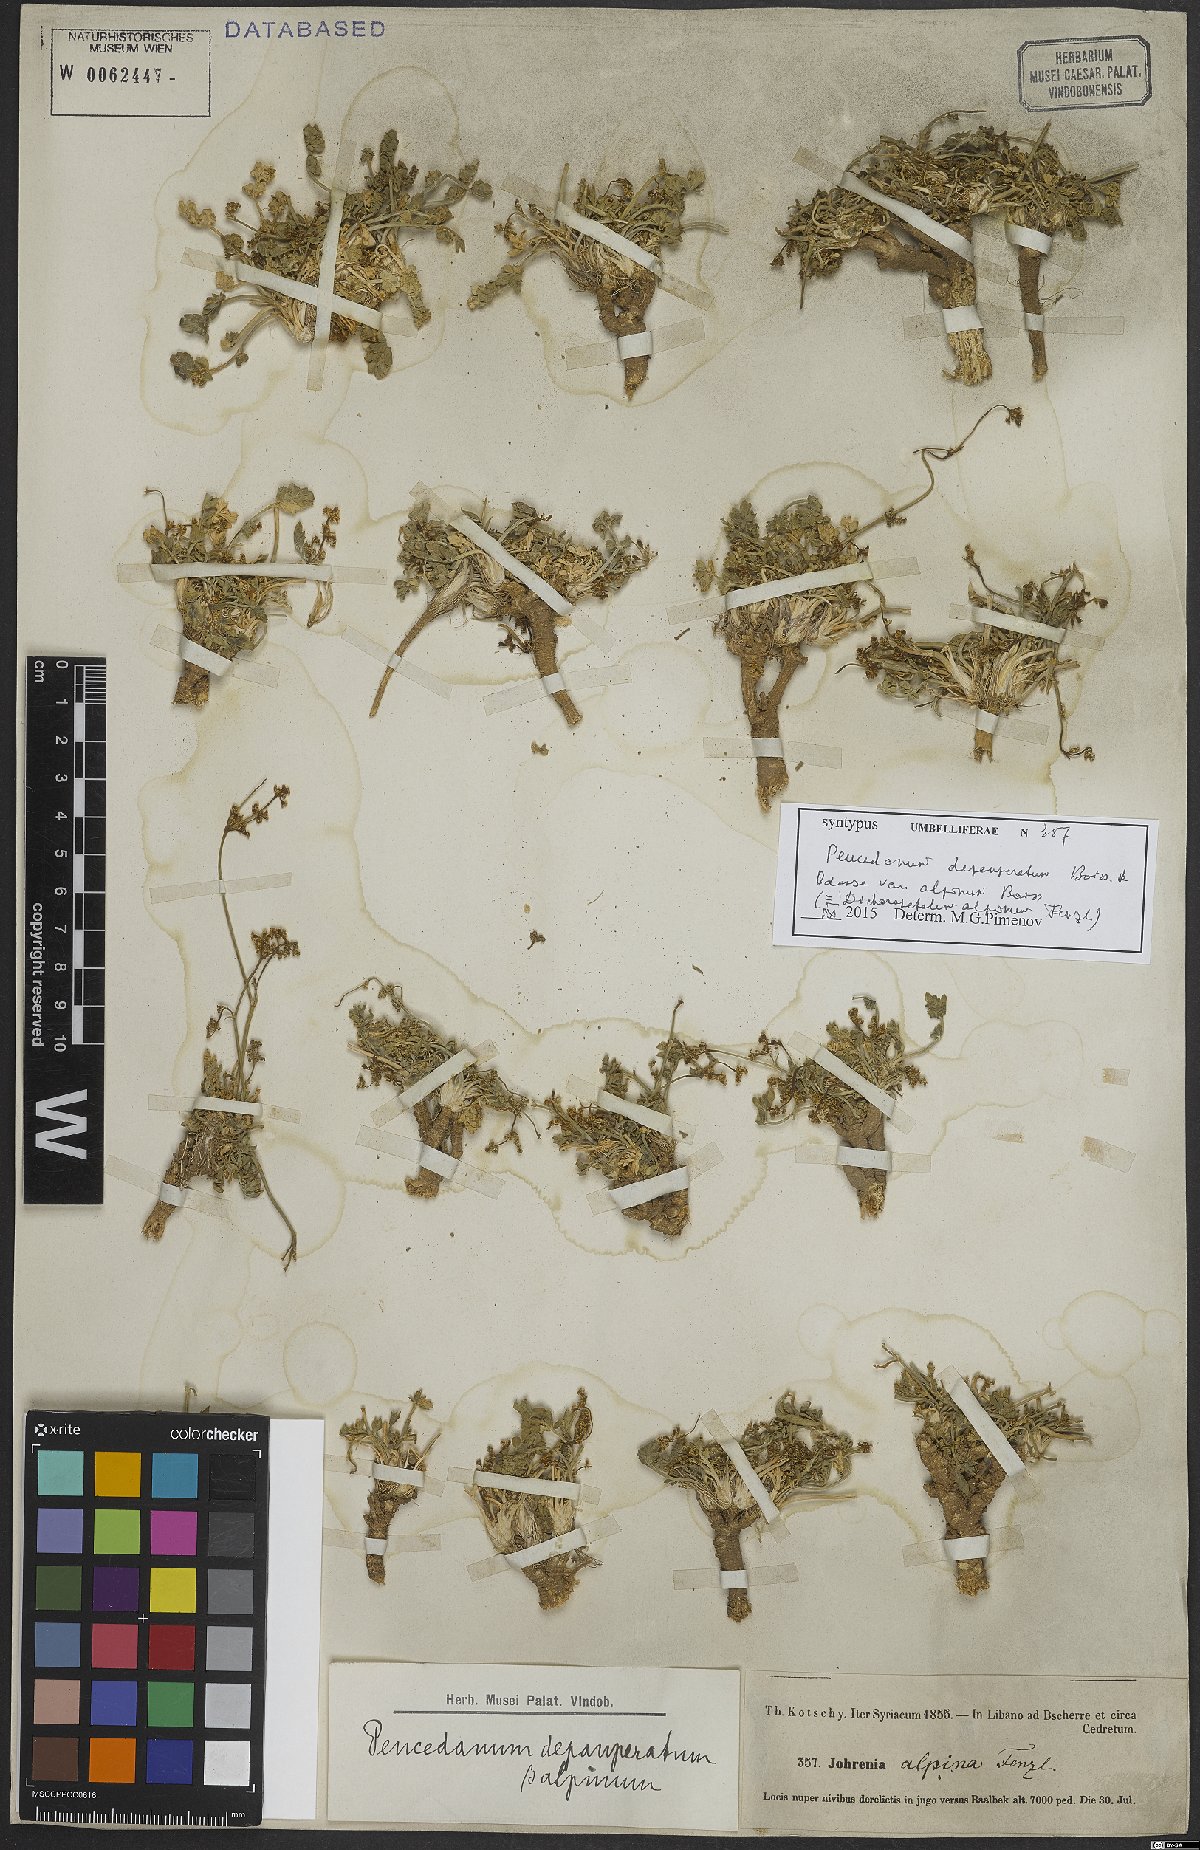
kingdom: Plantae
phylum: Tracheophyta
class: Magnoliopsida
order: Apiales
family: Apiaceae
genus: Dichoropetalum
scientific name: Dichoropetalum alpinum
